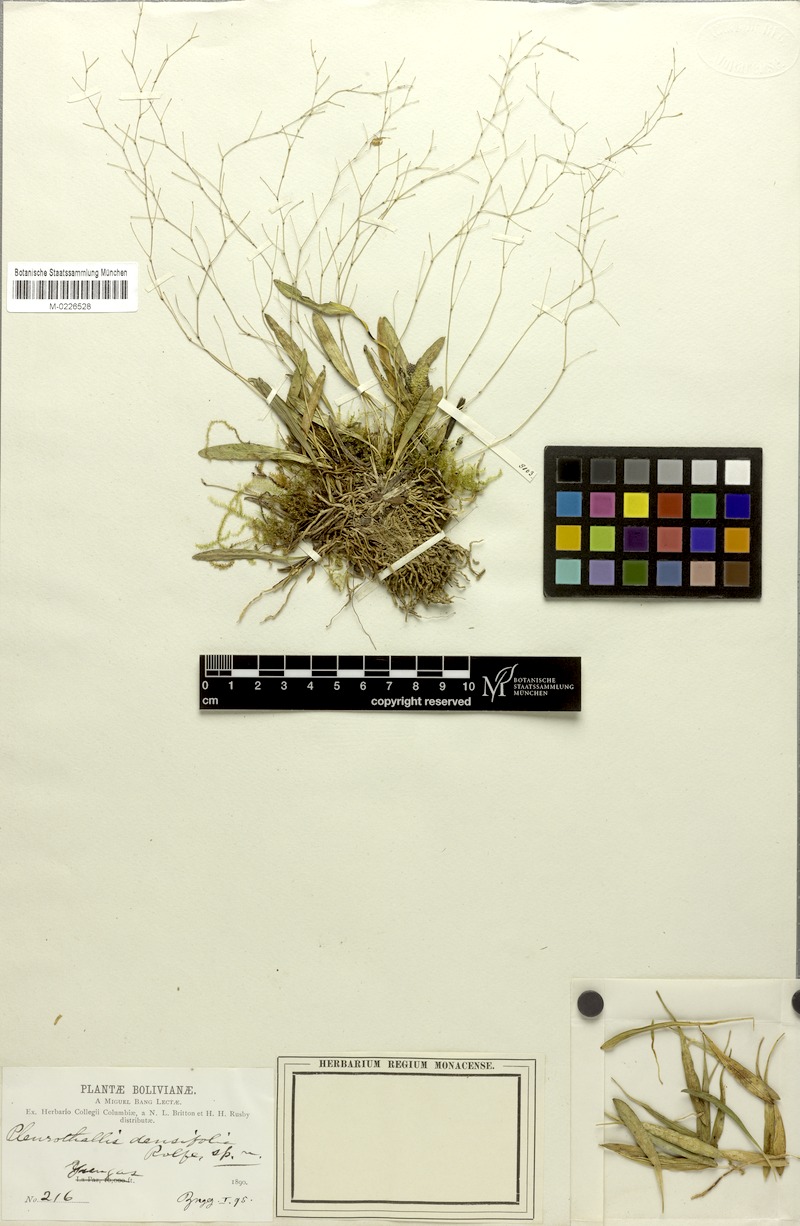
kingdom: Plantae
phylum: Tracheophyta
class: Liliopsida
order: Asparagales
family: Orchidaceae
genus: Specklinia
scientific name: Specklinia picta
